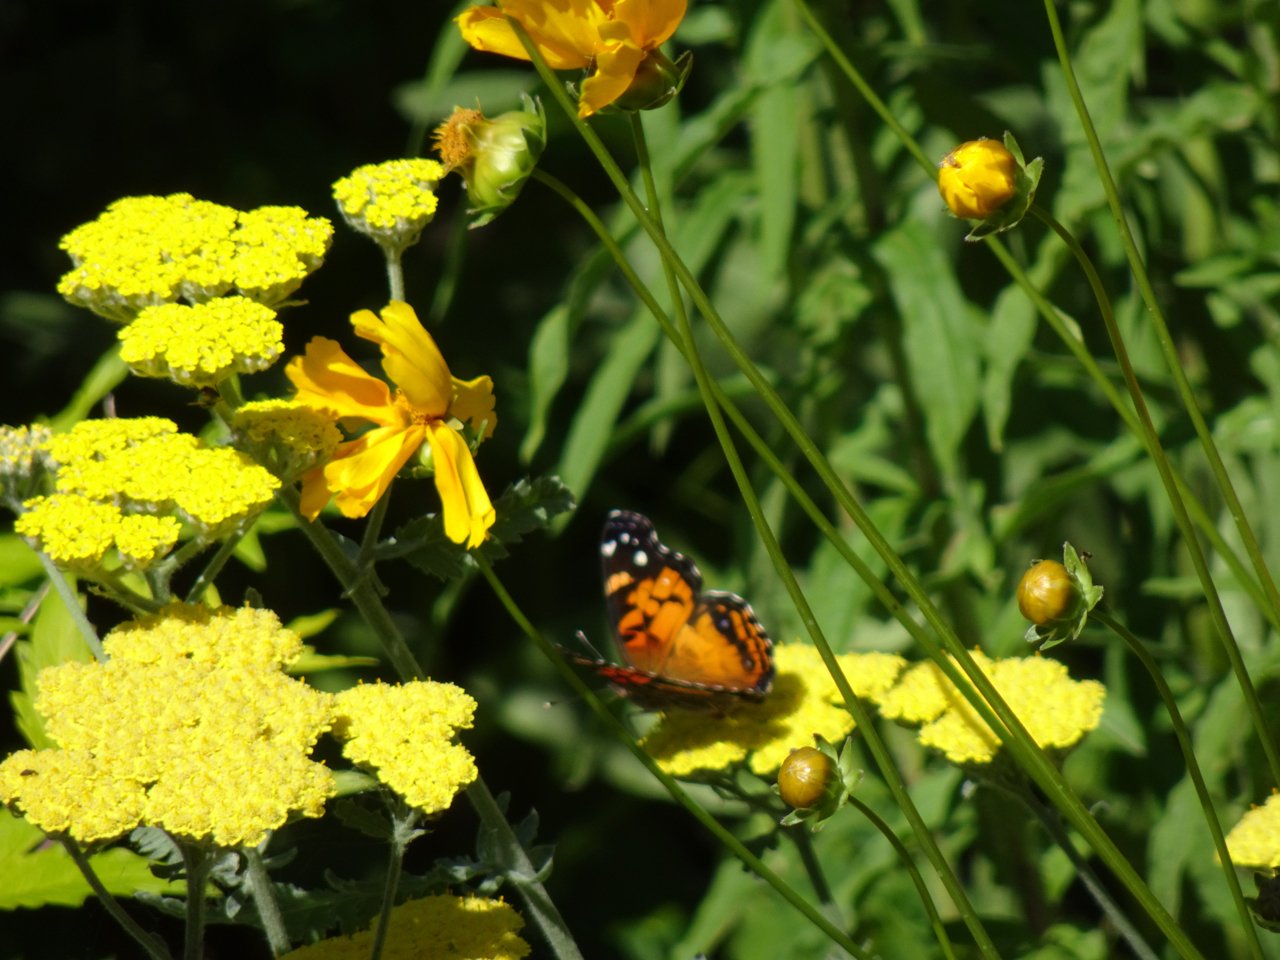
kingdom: Animalia
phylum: Arthropoda
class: Insecta
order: Lepidoptera
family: Nymphalidae
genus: Vanessa
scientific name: Vanessa virginiensis
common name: American Lady
